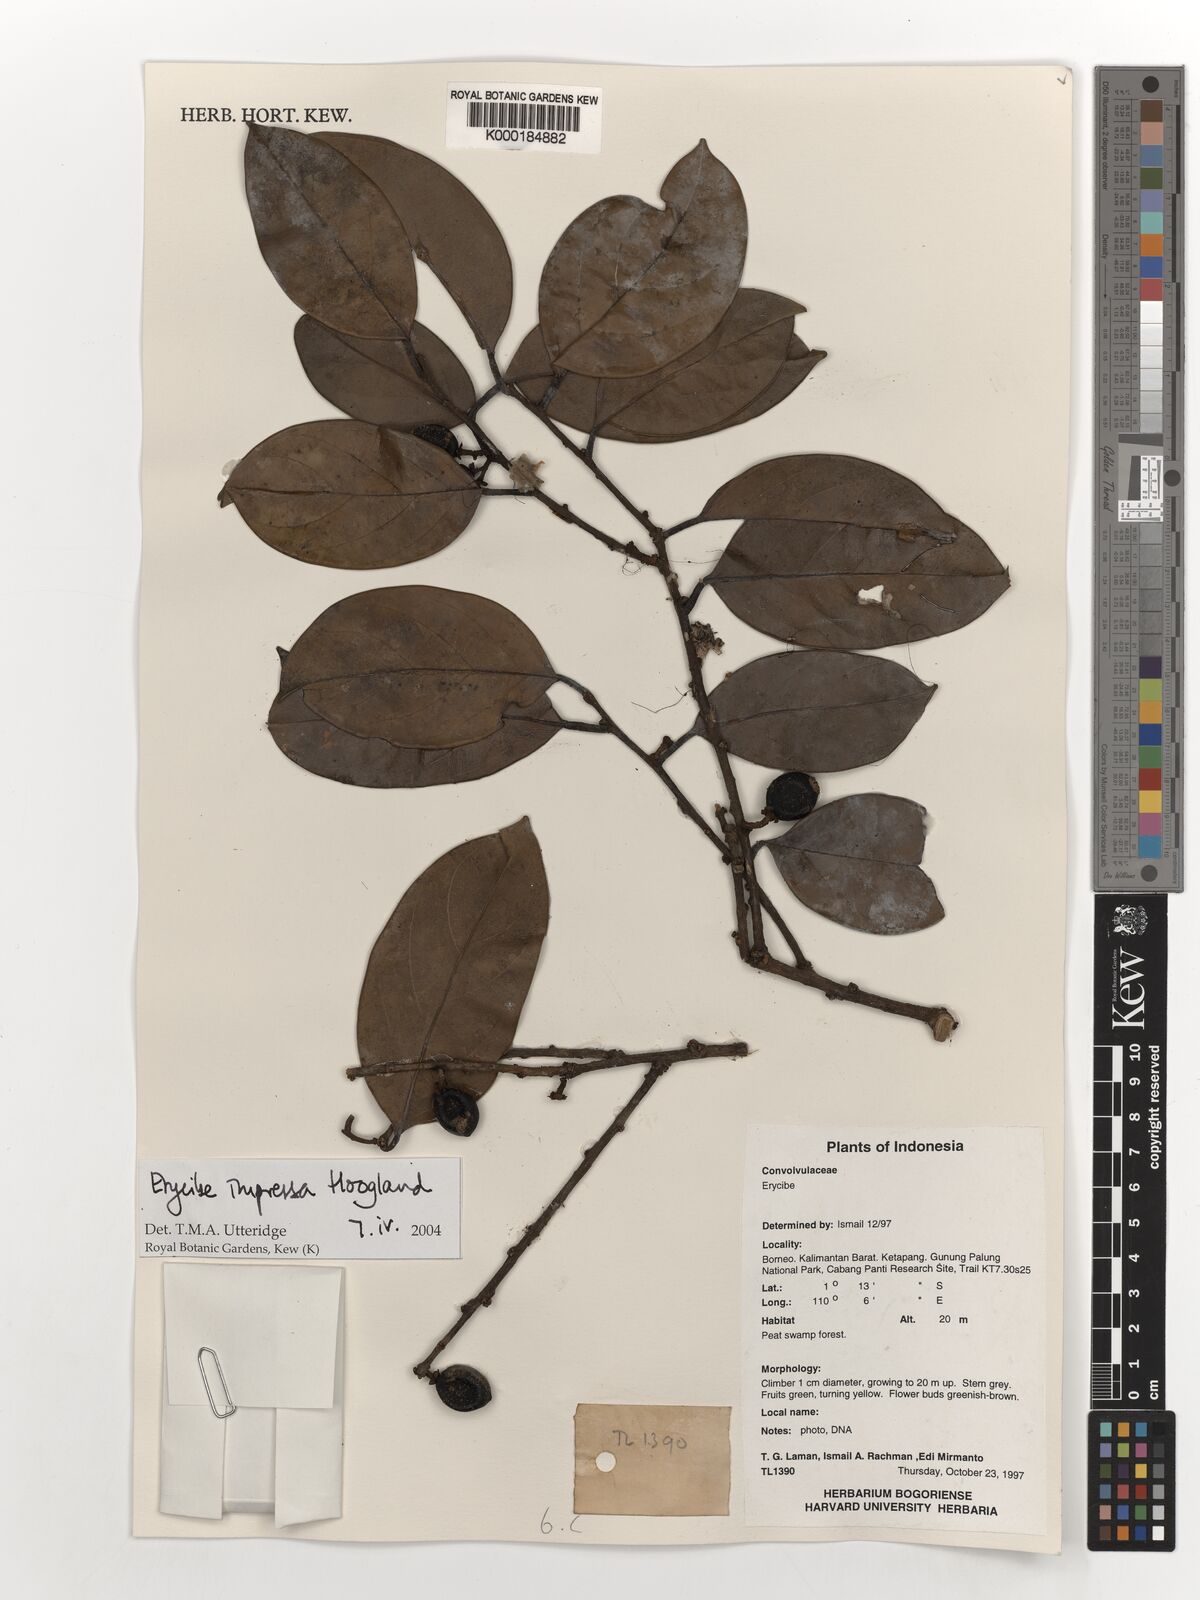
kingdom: Plantae
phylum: Tracheophyta
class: Magnoliopsida
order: Solanales
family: Convolvulaceae
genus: Erycibe
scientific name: Erycibe impressa
